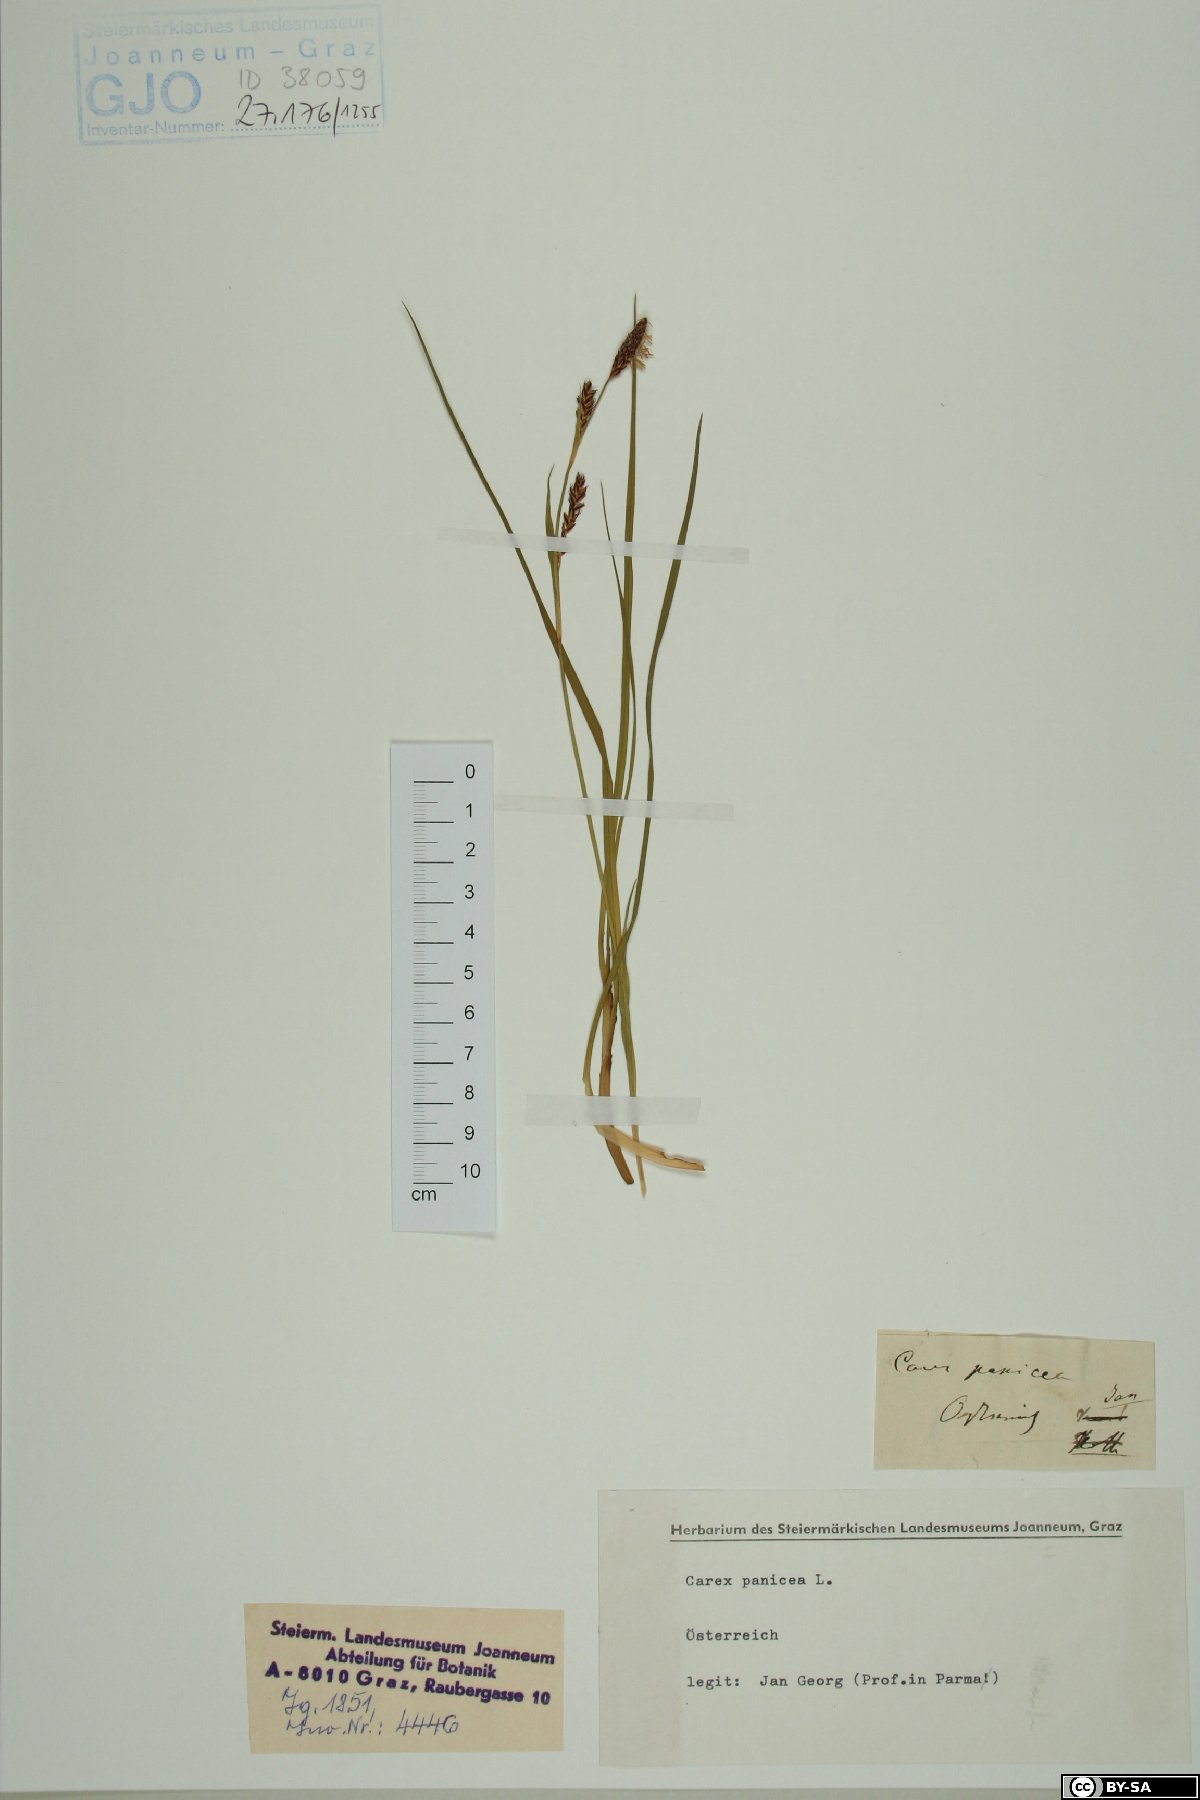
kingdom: Plantae
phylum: Tracheophyta
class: Liliopsida
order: Poales
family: Cyperaceae
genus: Carex
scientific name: Carex panicea
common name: Carnation sedge
